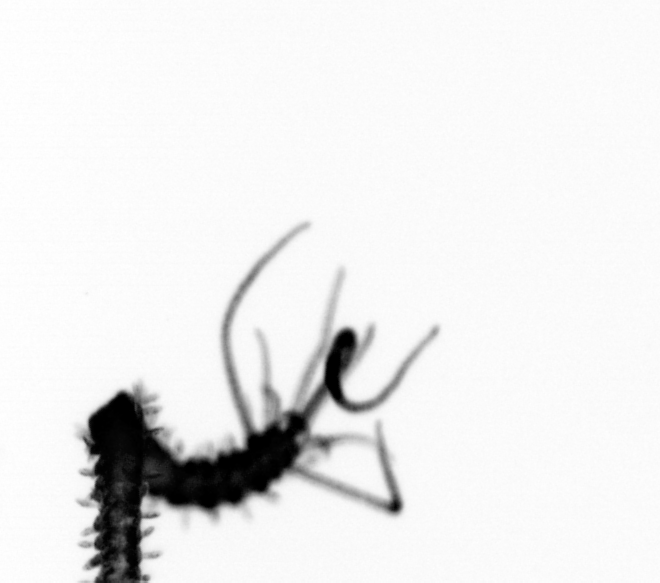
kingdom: Animalia
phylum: Annelida
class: Polychaeta
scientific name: Polychaeta
